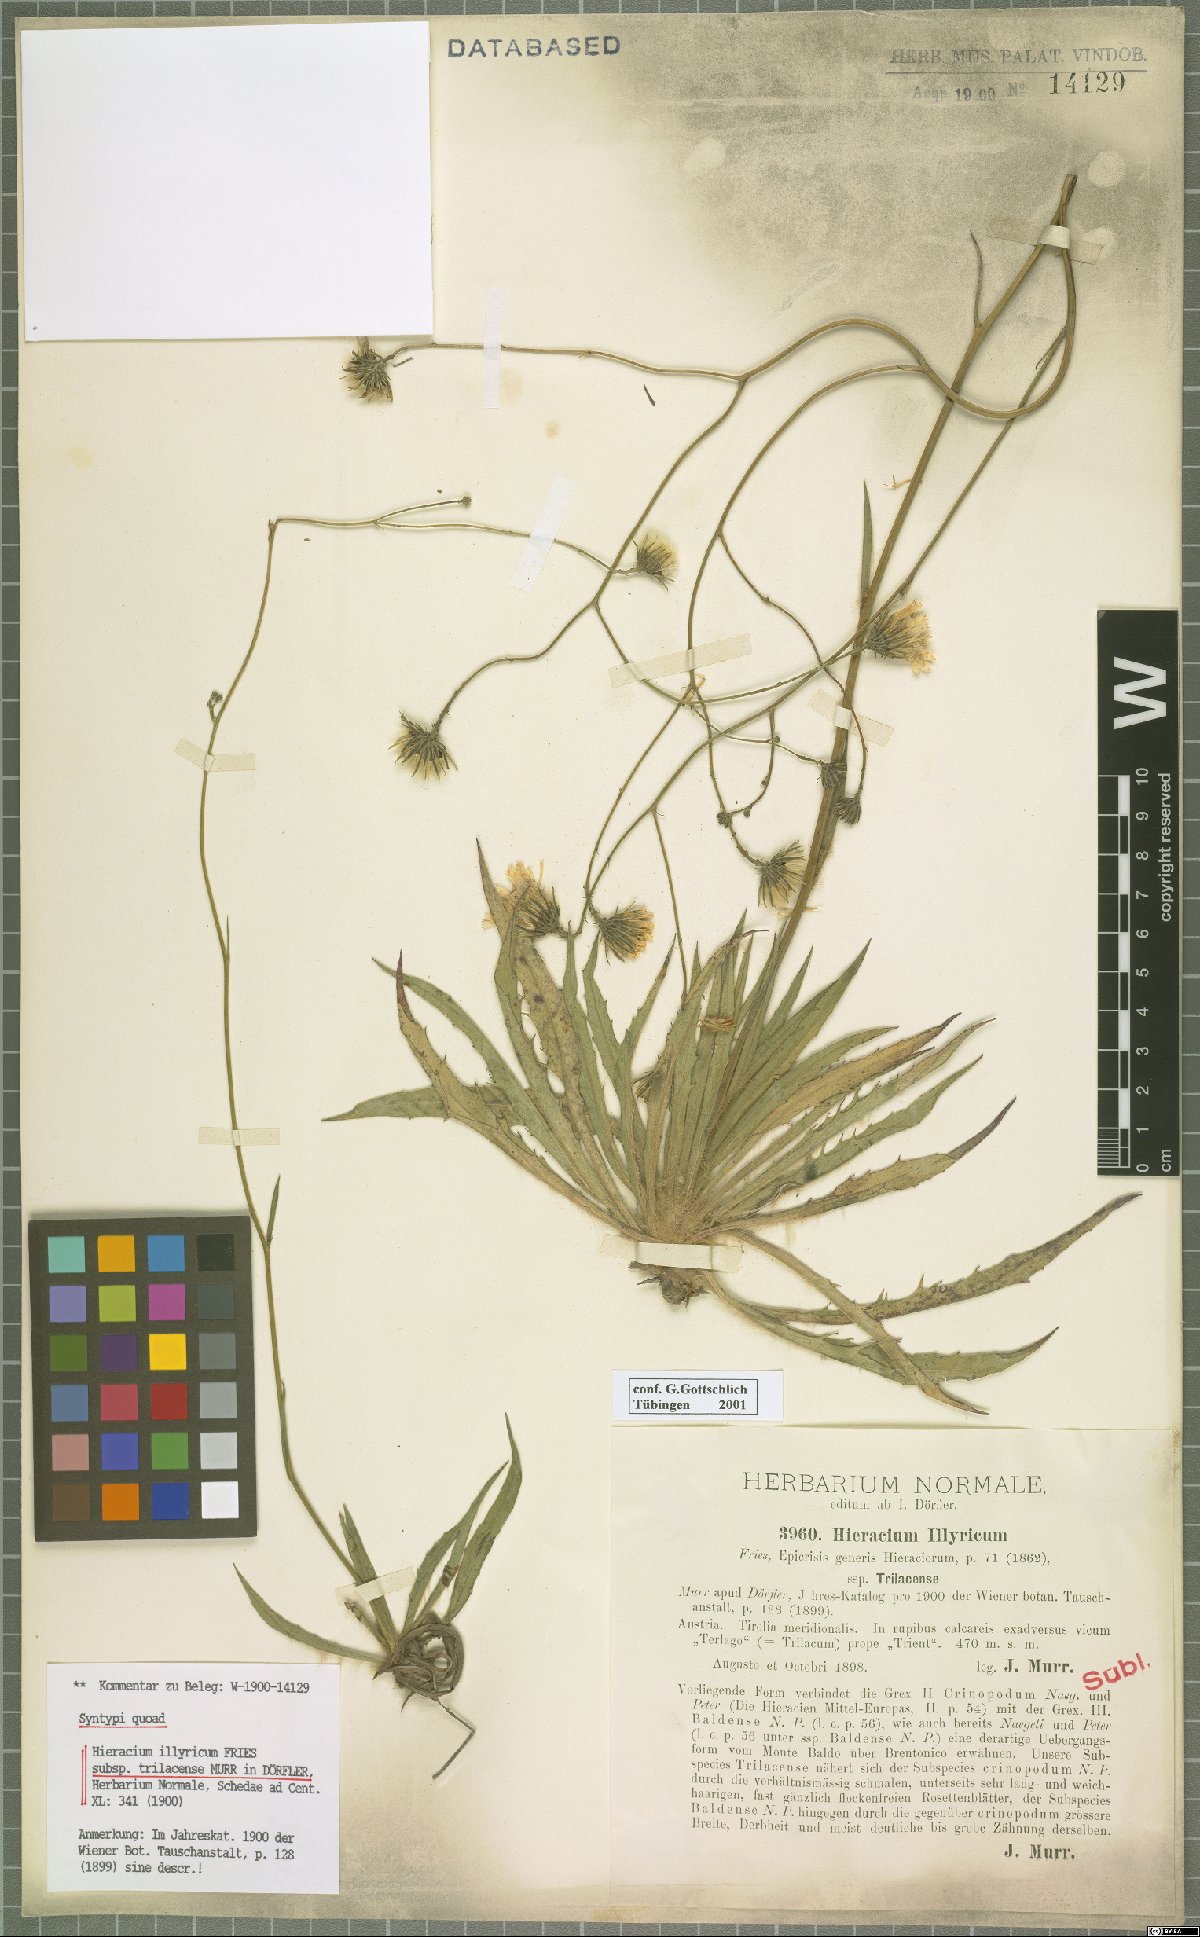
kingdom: Plantae
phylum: Tracheophyta
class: Magnoliopsida
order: Asterales
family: Asteraceae
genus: Hieracium
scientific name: Hieracium calcareum
